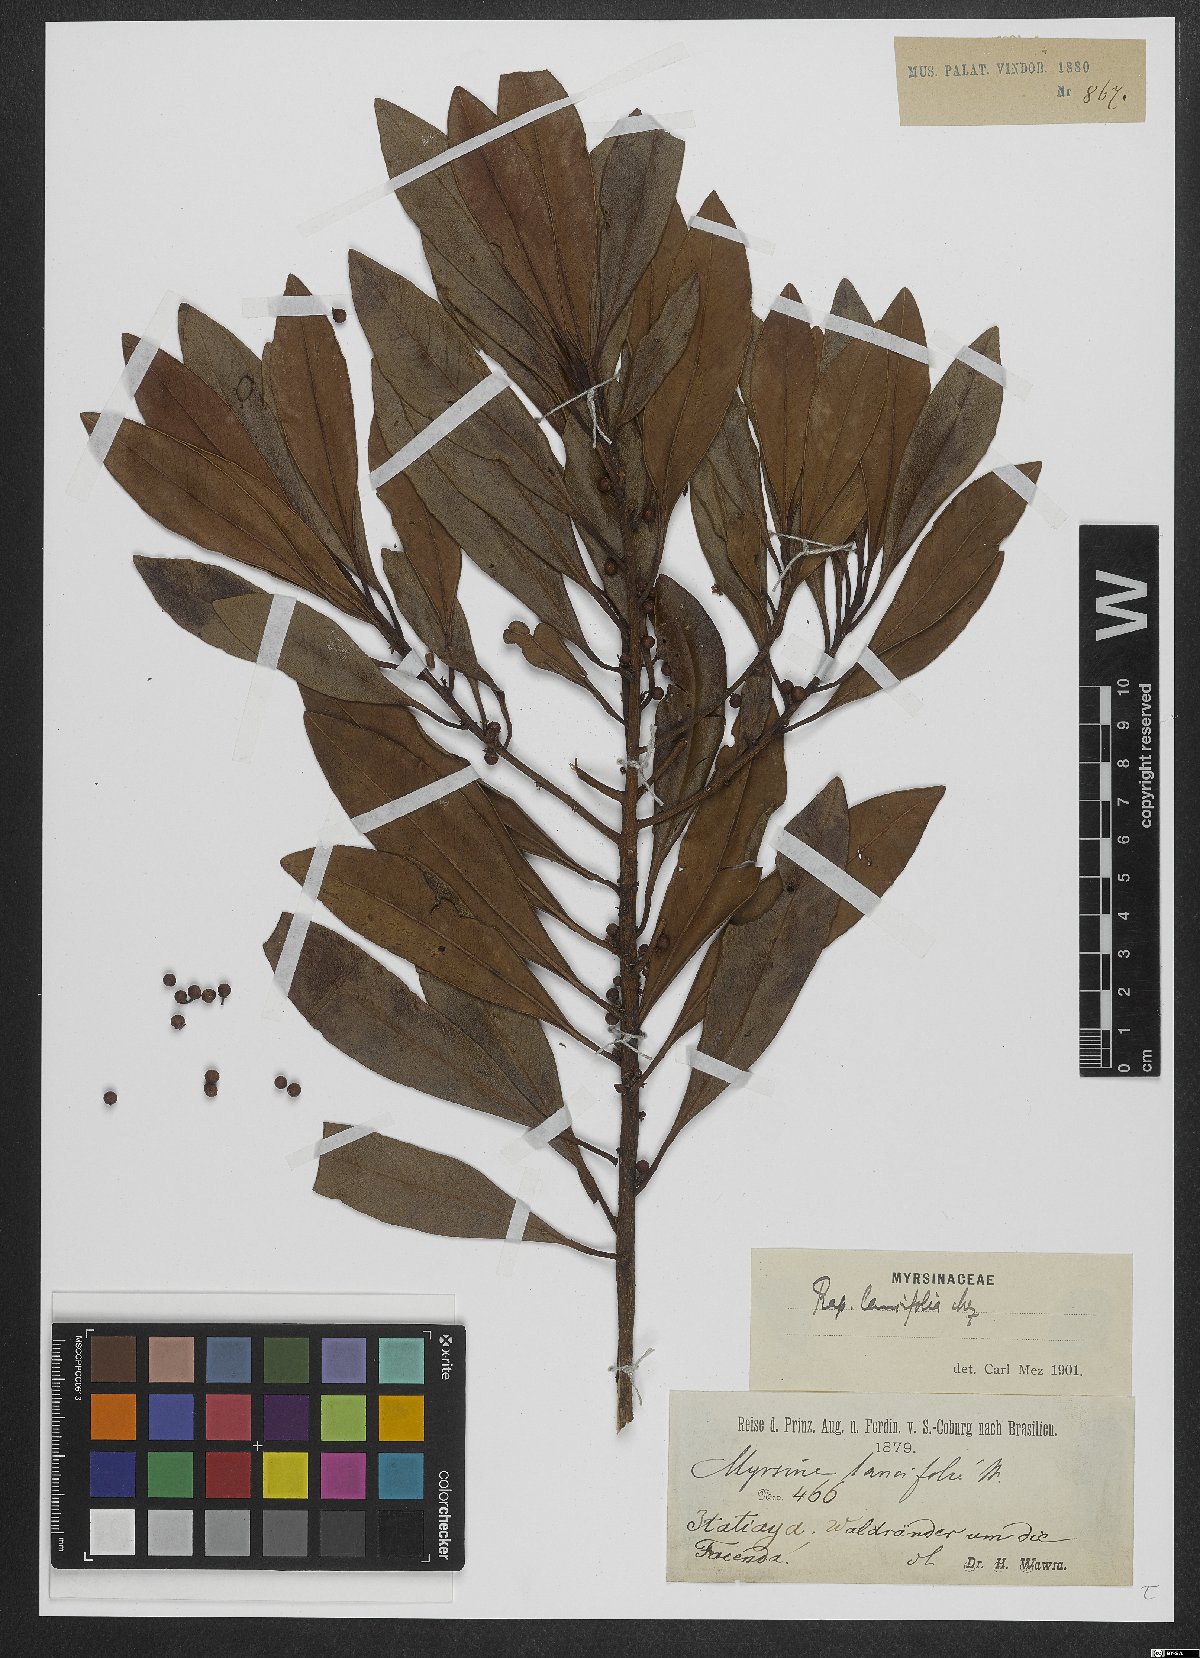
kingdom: Plantae
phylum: Tracheophyta
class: Magnoliopsida
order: Ericales
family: Primulaceae
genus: Myrsine
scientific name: Myrsine lancifolia
